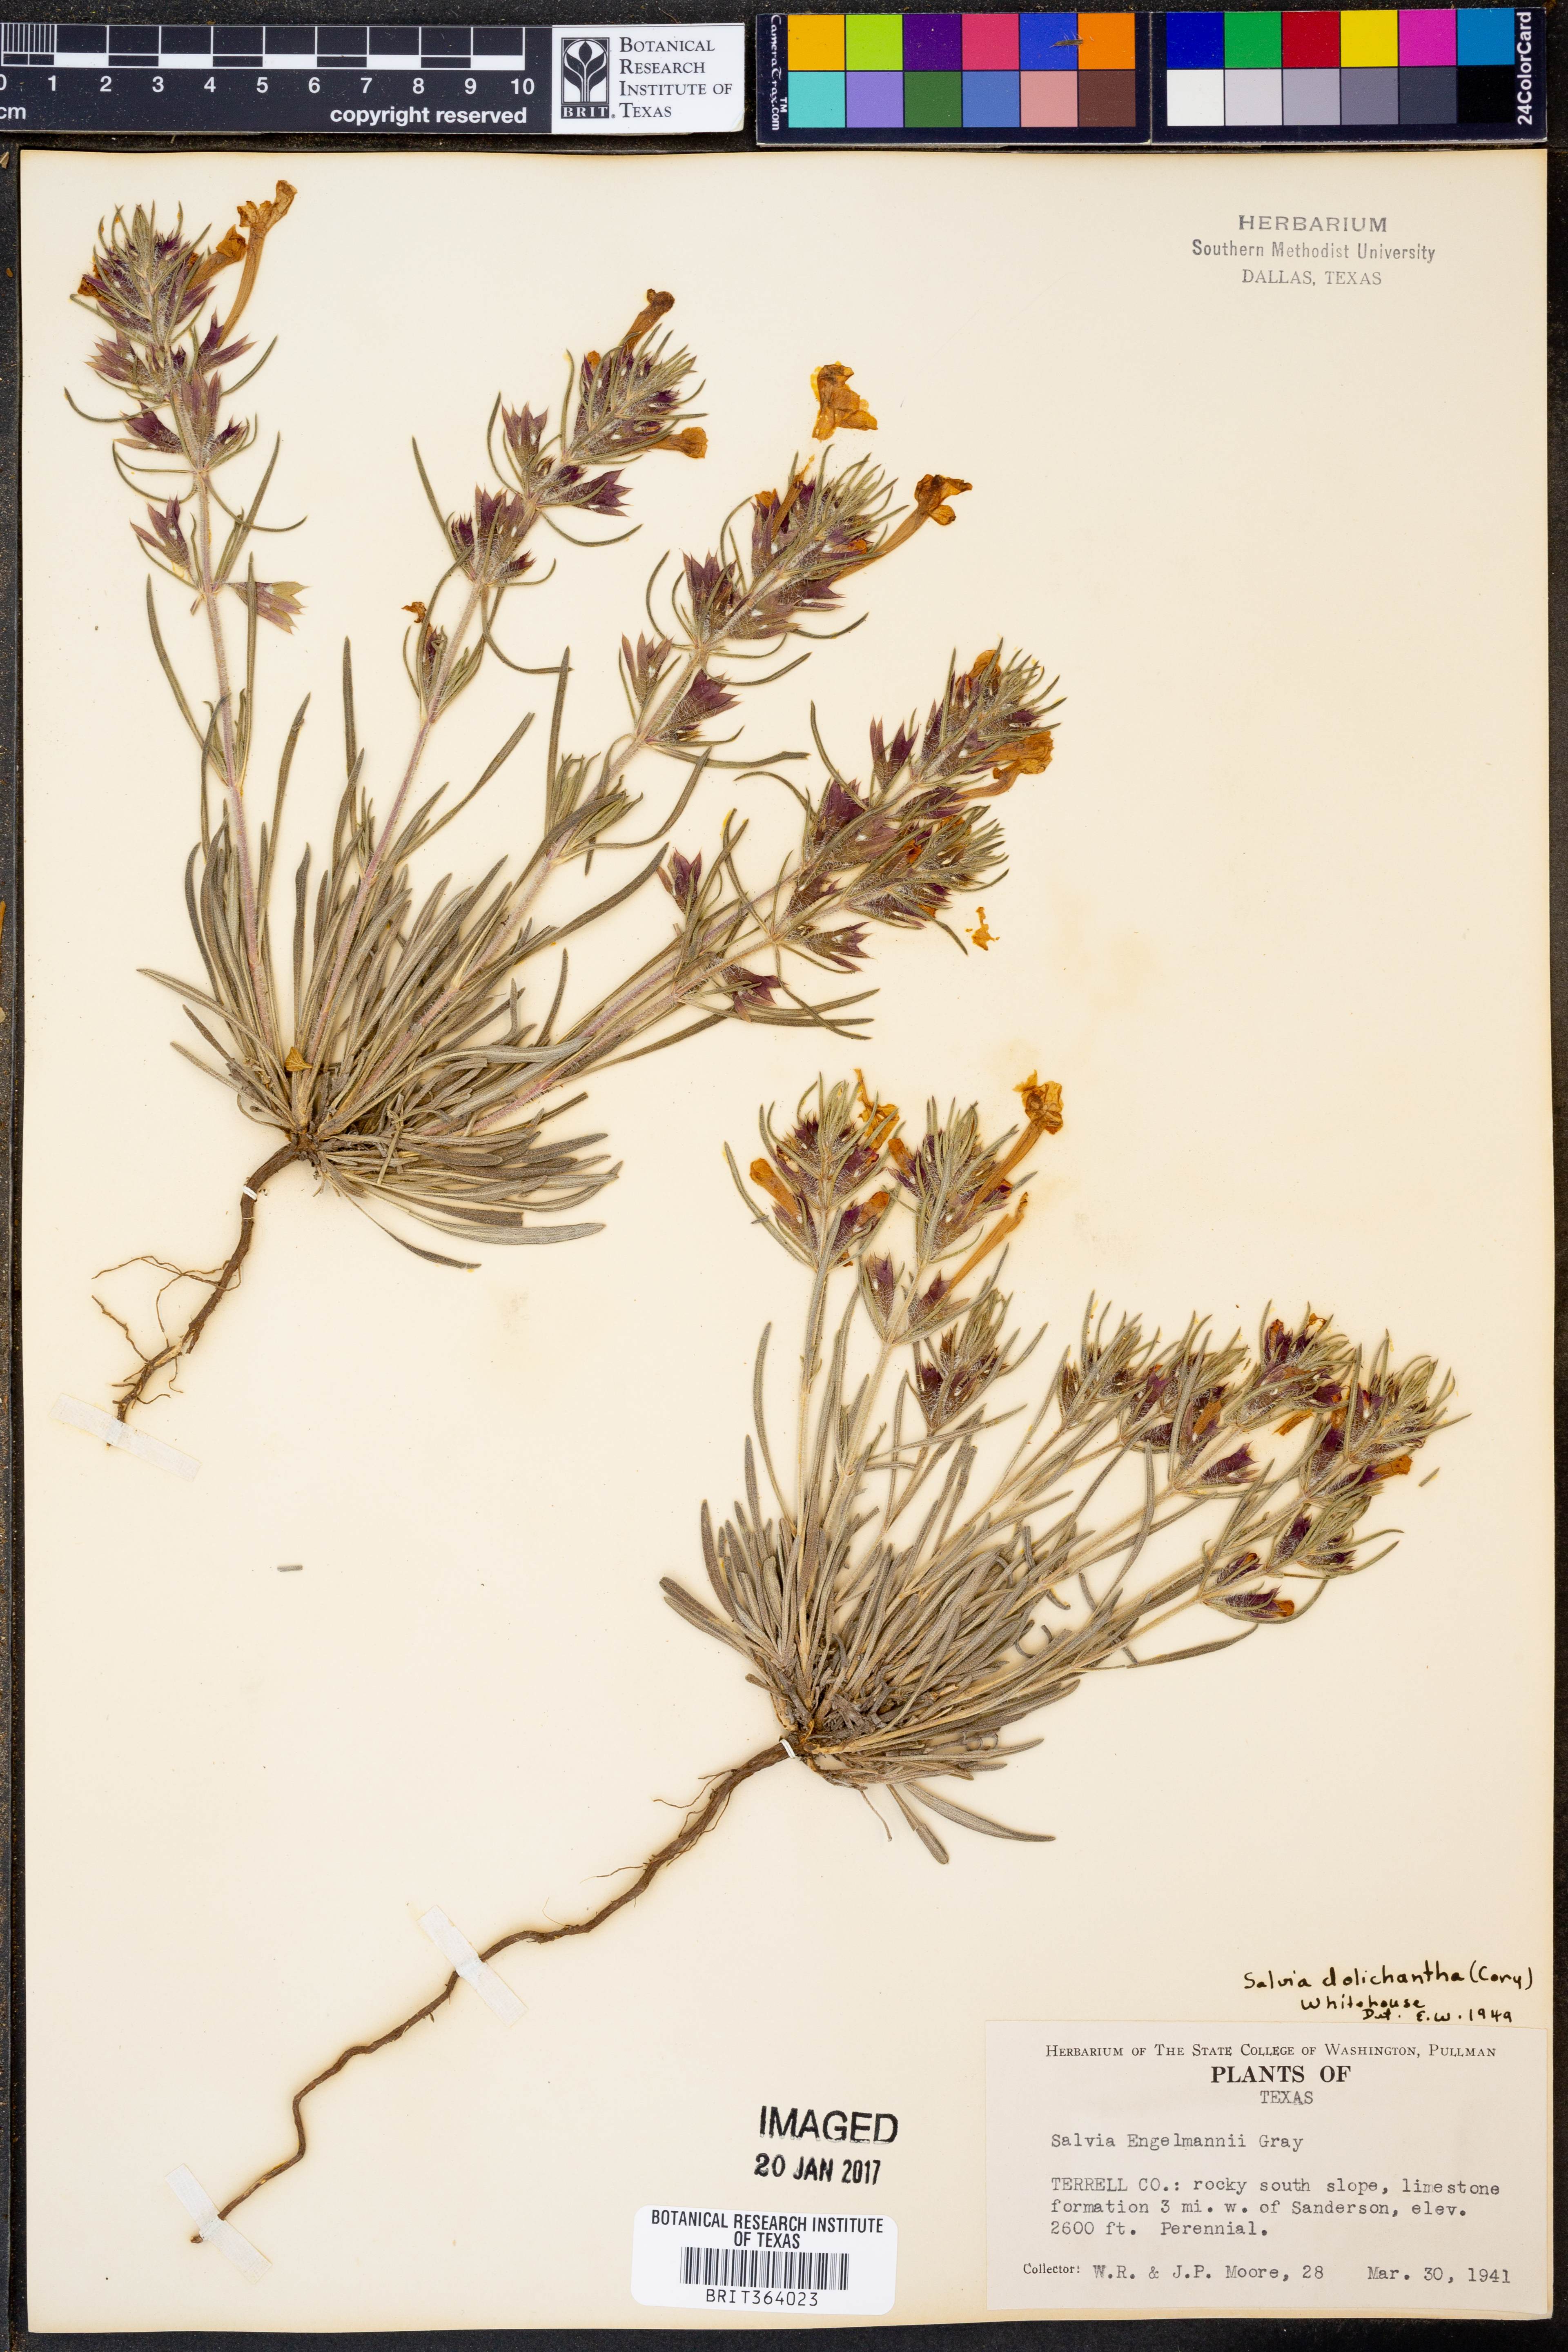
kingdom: Plantae
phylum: Tracheophyta
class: Magnoliopsida
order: Lamiales
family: Lamiaceae
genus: Salvia
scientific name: Salvia whitehousei
